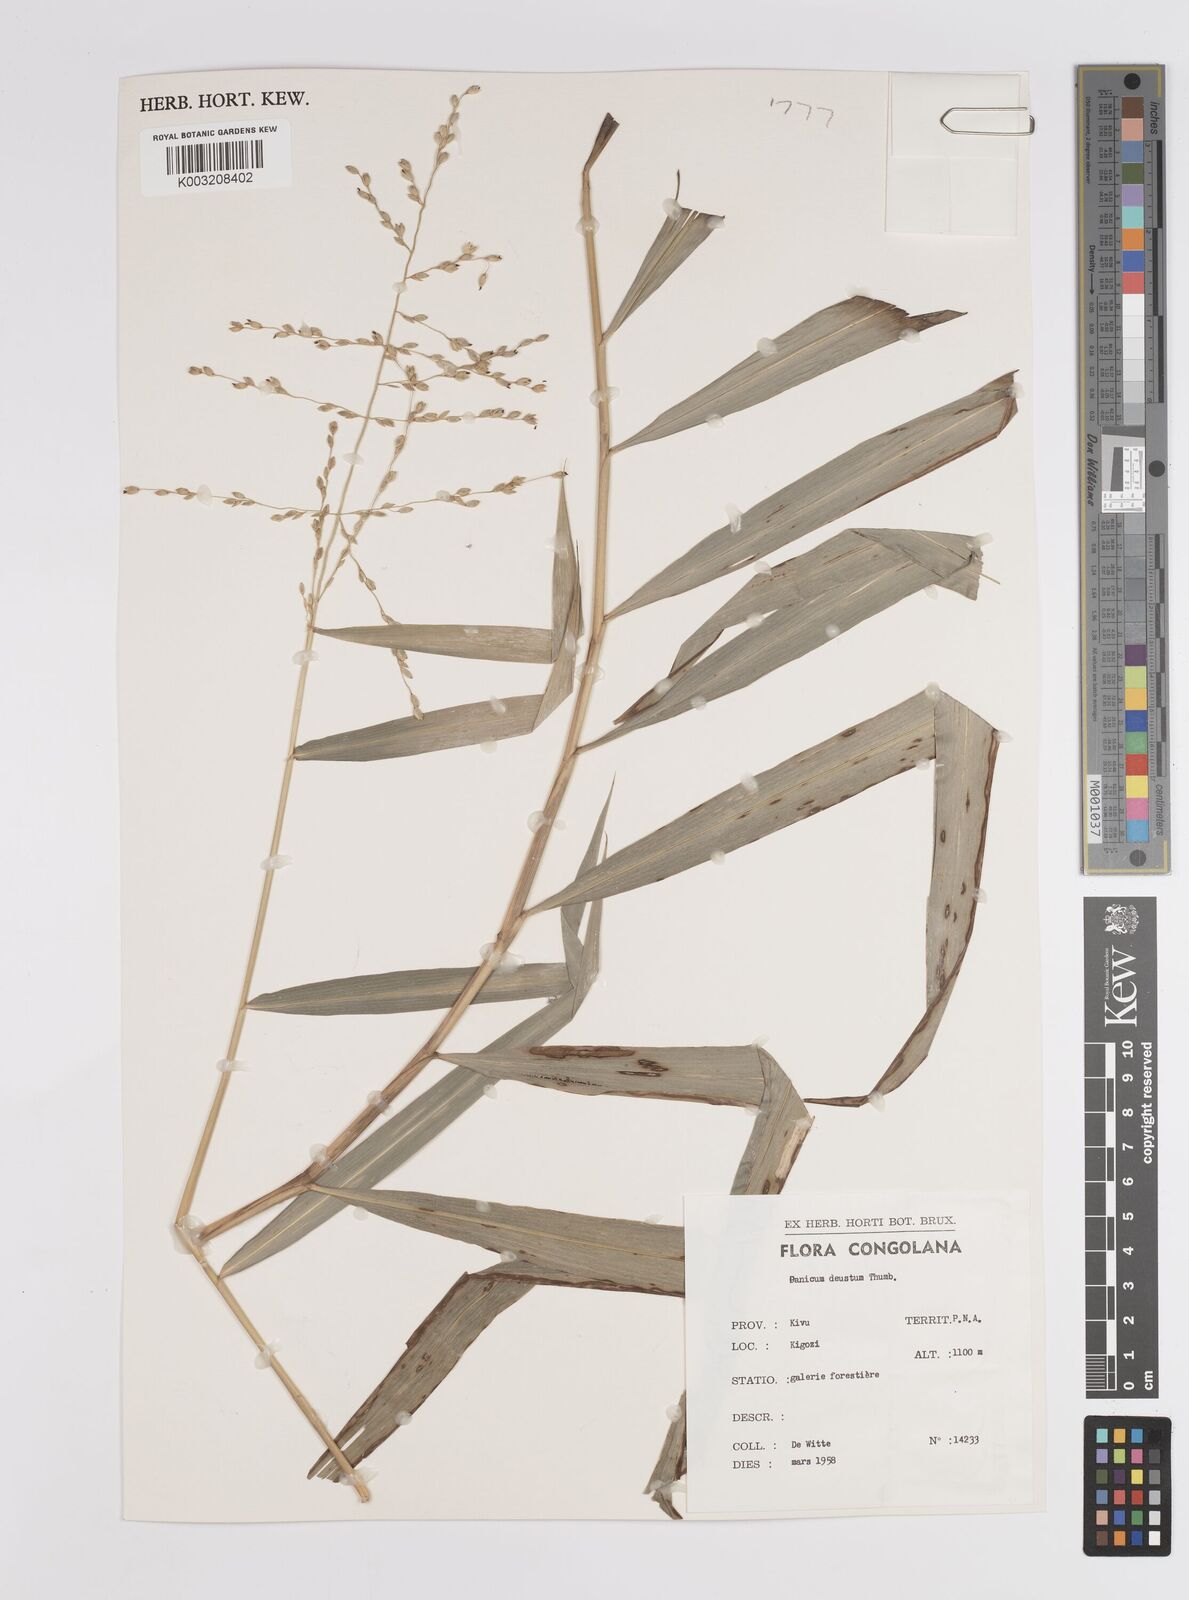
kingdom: Plantae
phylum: Tracheophyta
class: Liliopsida
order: Poales
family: Poaceae
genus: Panicum
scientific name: Panicum deustum
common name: Reed panicum
